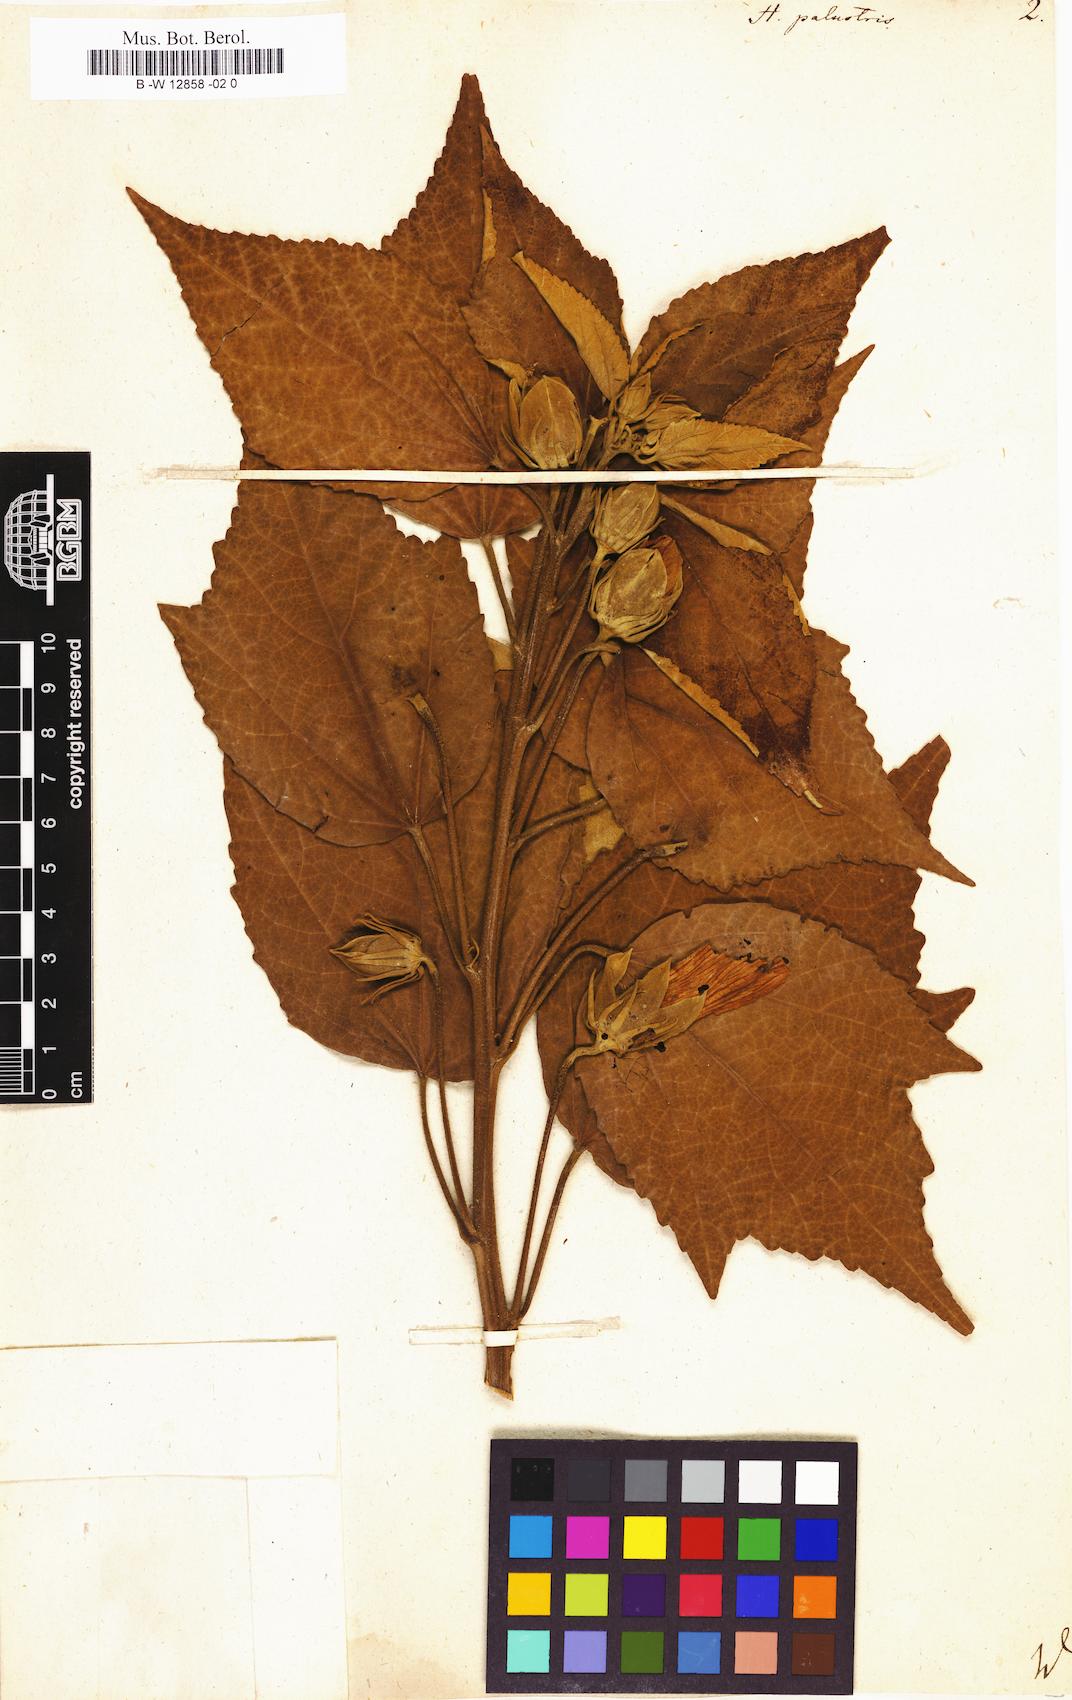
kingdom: Plantae
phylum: Tracheophyta
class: Magnoliopsida
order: Malvales
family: Malvaceae
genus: Hibiscus
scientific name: Hibiscus moscheutos
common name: Common rose-mallow
